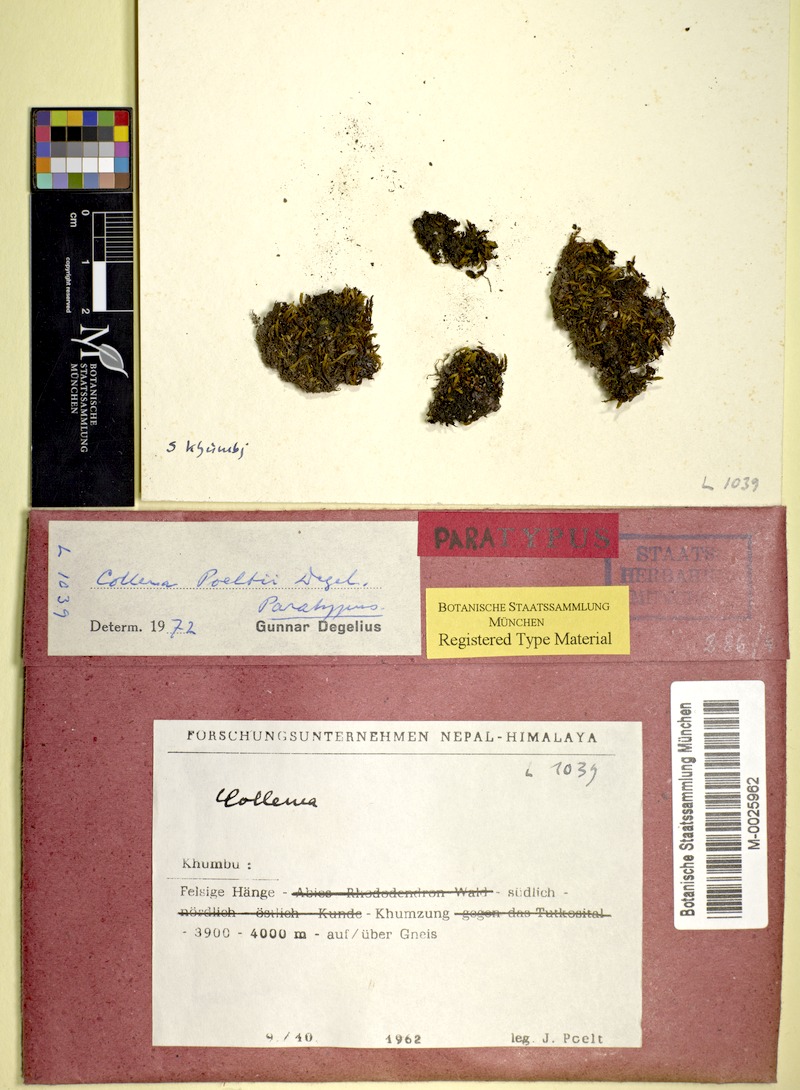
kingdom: Fungi
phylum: Ascomycota
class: Lecanoromycetes
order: Peltigerales
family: Collemataceae
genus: Lathagrium
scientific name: Lathagrium poeltii
